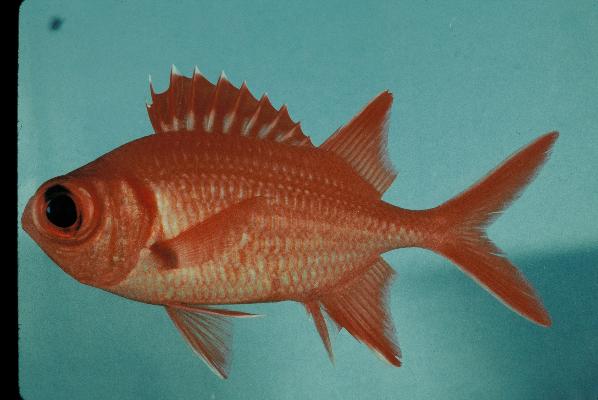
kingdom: Animalia
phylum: Chordata
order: Beryciformes
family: Holocentridae
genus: Myripristis
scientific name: Myripristis vittata
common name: Immaculate squirrelfish
